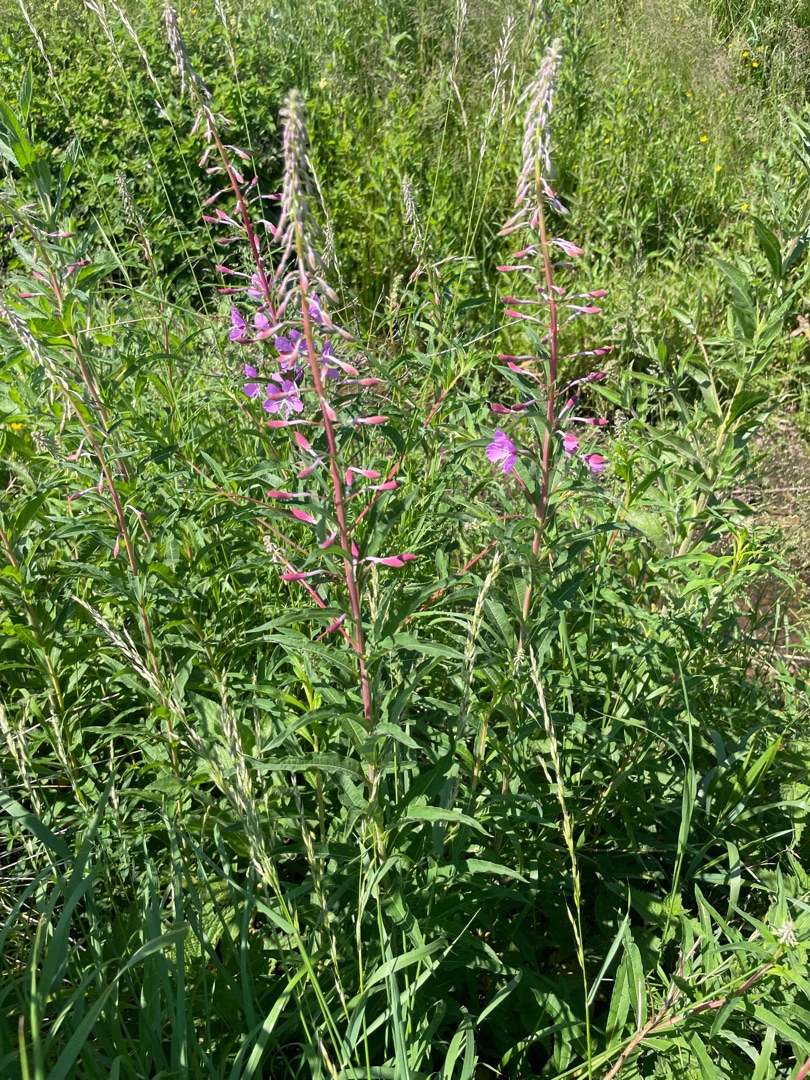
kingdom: Plantae
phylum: Tracheophyta
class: Magnoliopsida
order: Myrtales
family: Onagraceae
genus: Chamaenerion
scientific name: Chamaenerion angustifolium
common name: Gederams
